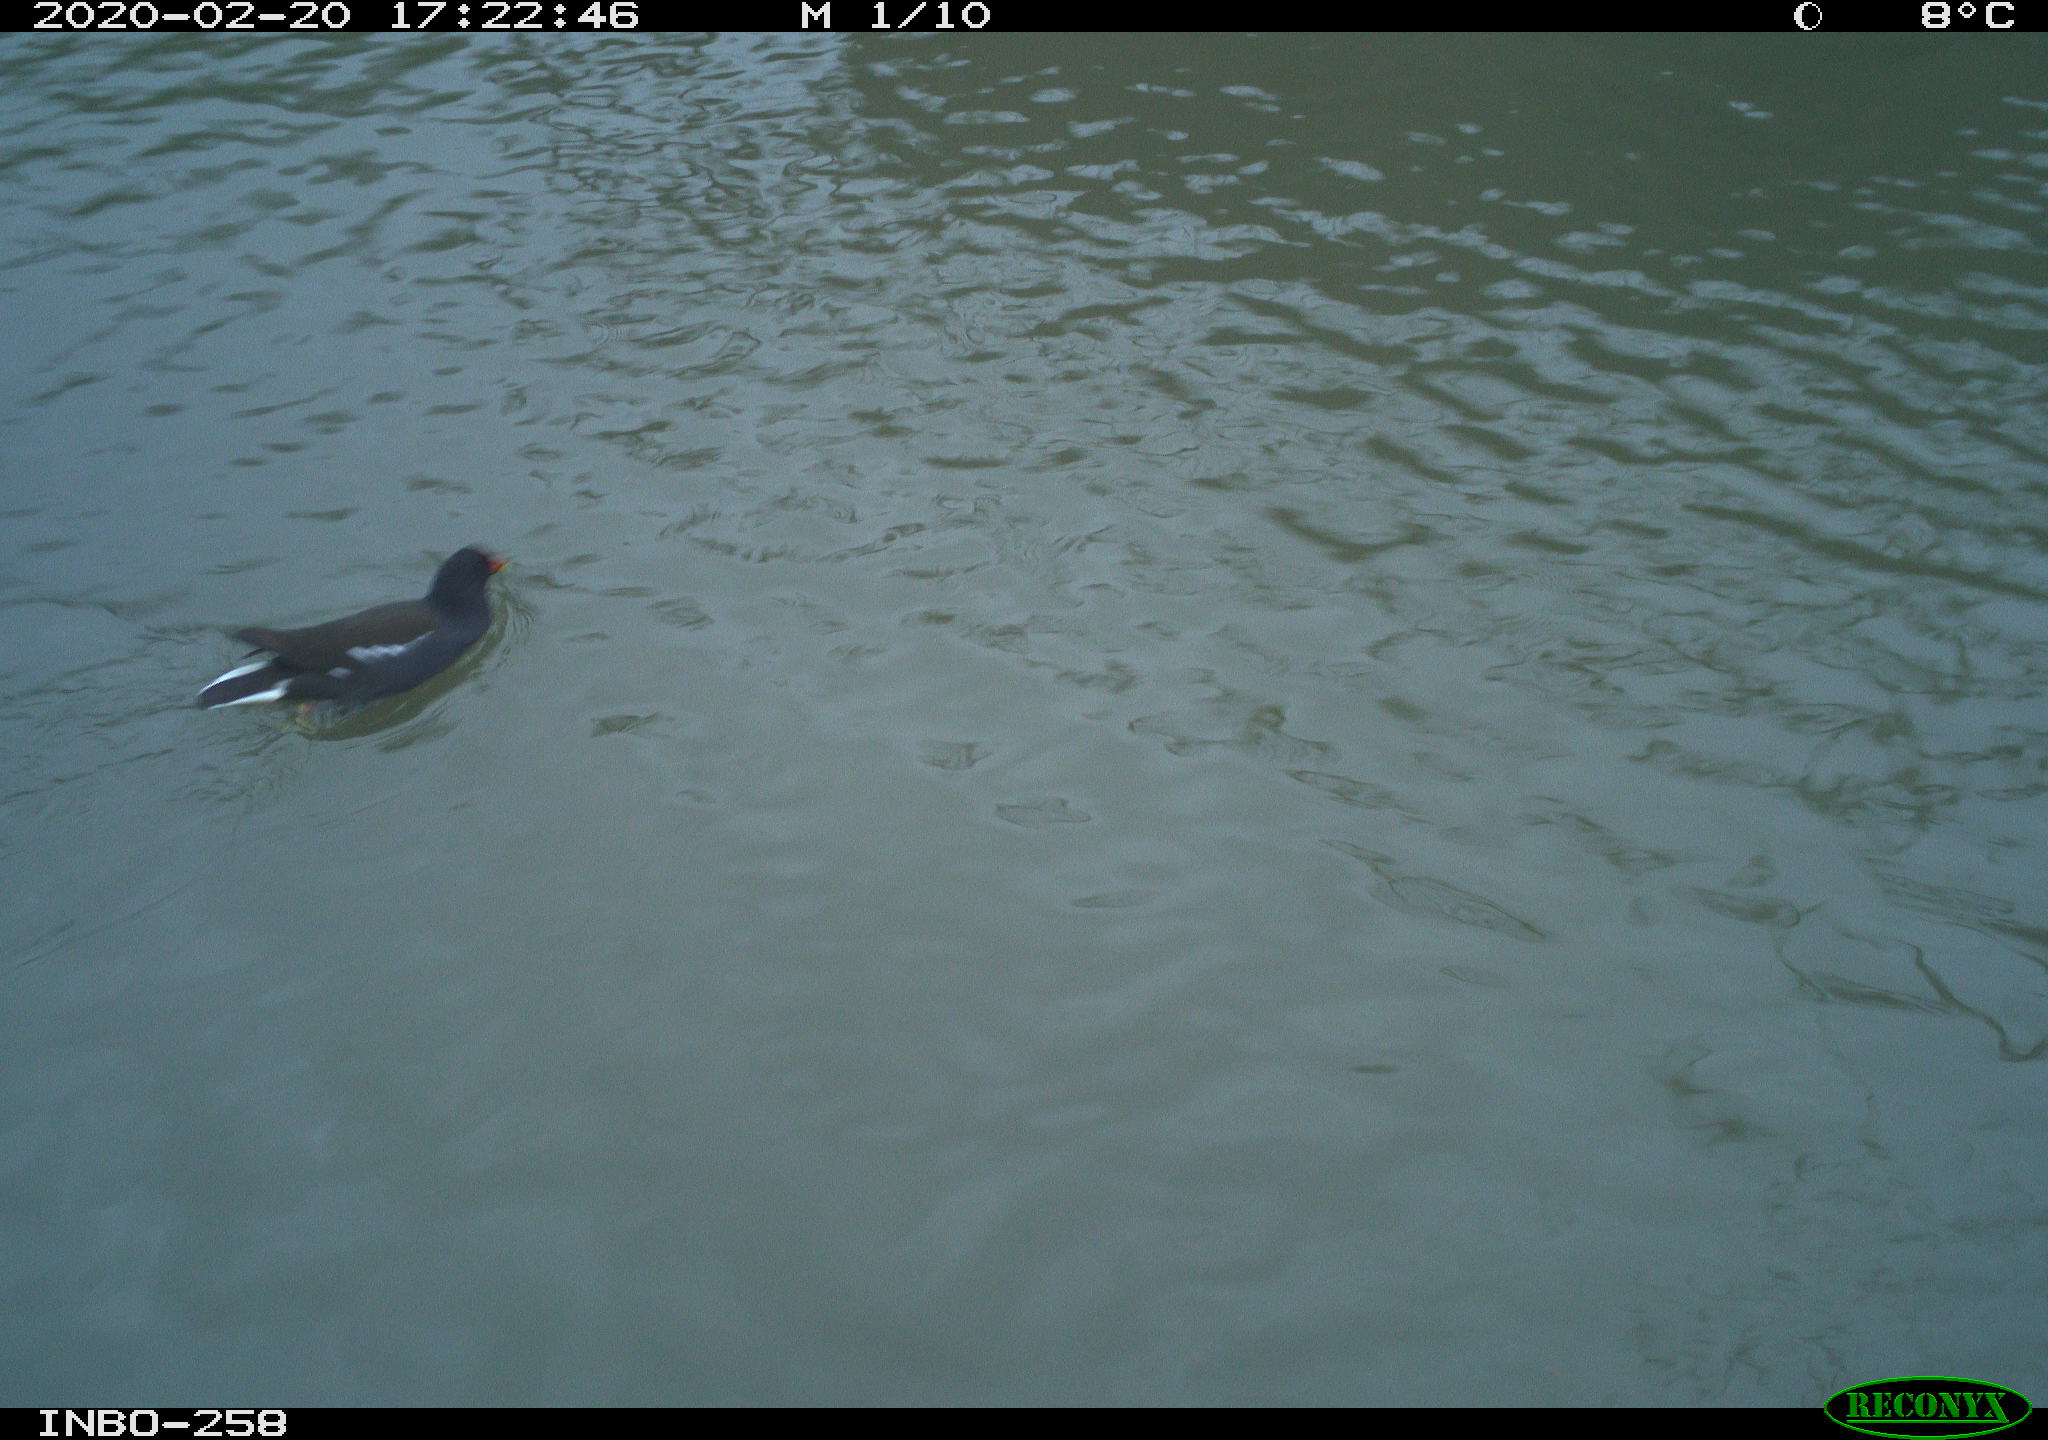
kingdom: Animalia
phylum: Chordata
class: Aves
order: Gruiformes
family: Rallidae
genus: Gallinula
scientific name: Gallinula chloropus
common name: Common moorhen
